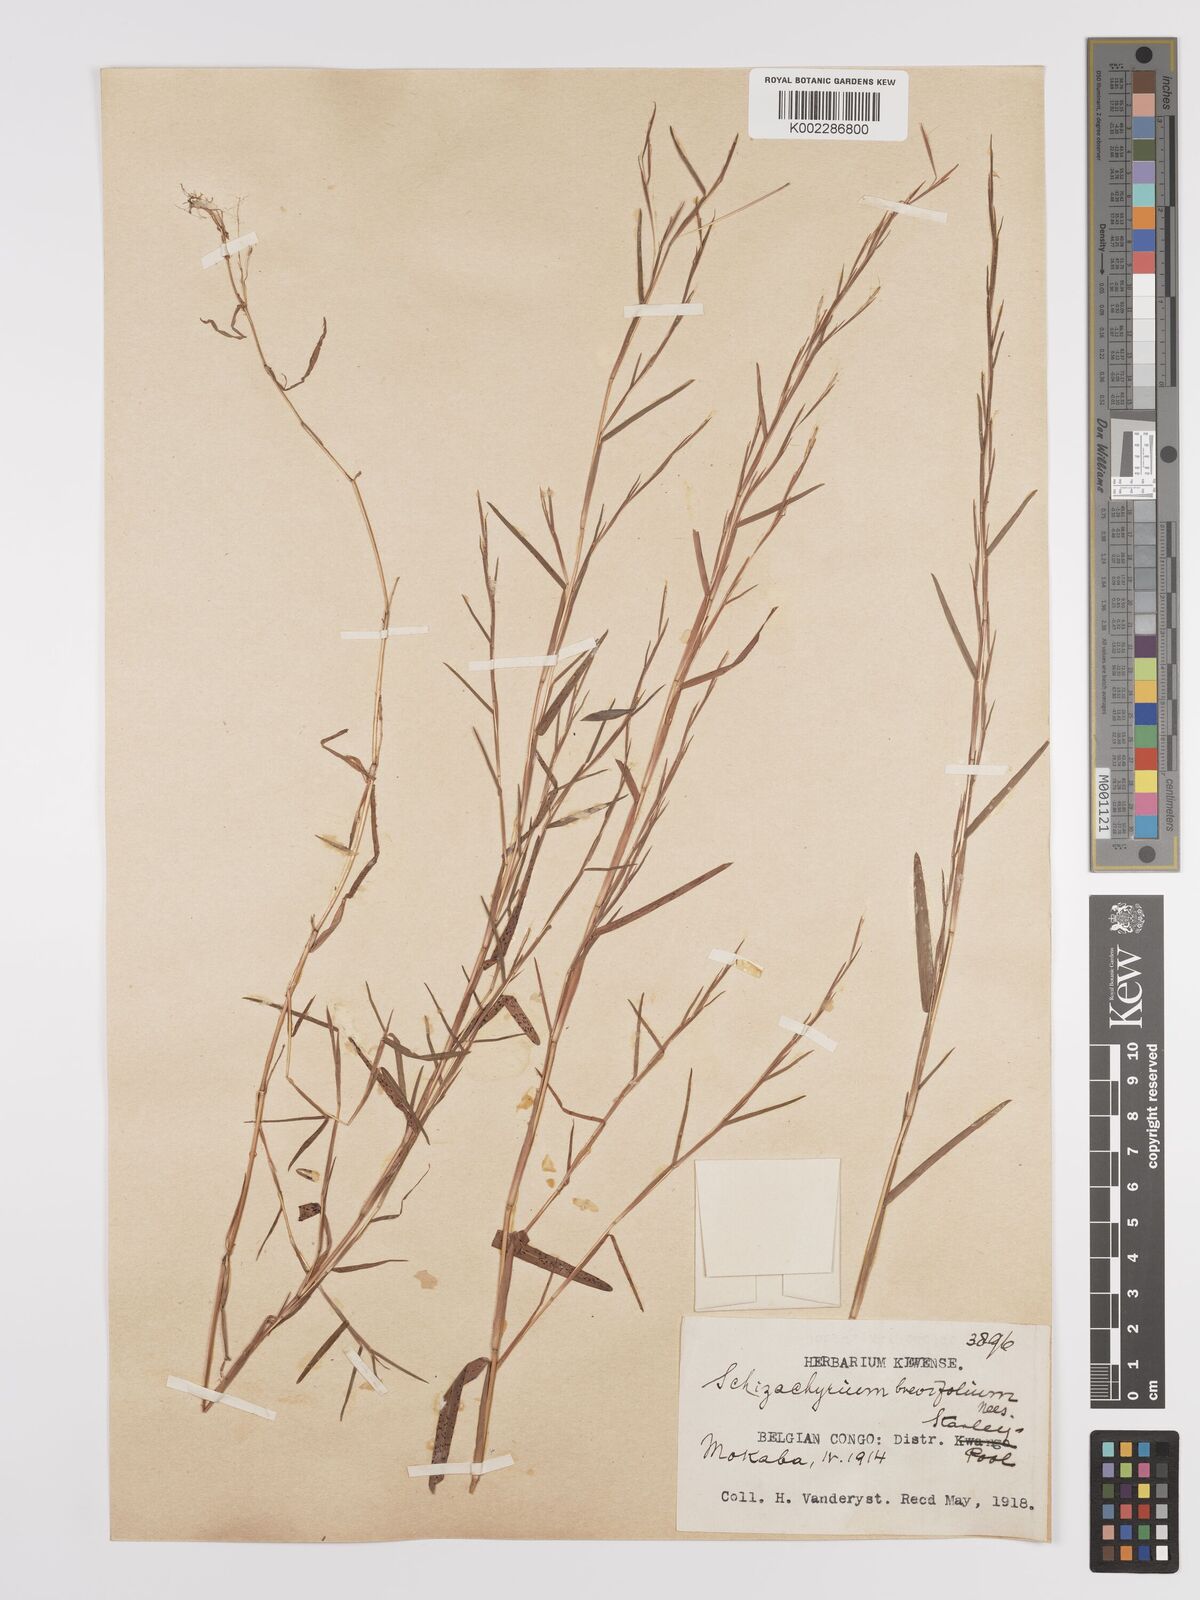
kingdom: Plantae
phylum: Tracheophyta
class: Liliopsida
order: Poales
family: Poaceae
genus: Schizachyrium
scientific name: Schizachyrium brevifolium
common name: Serillo dulce
